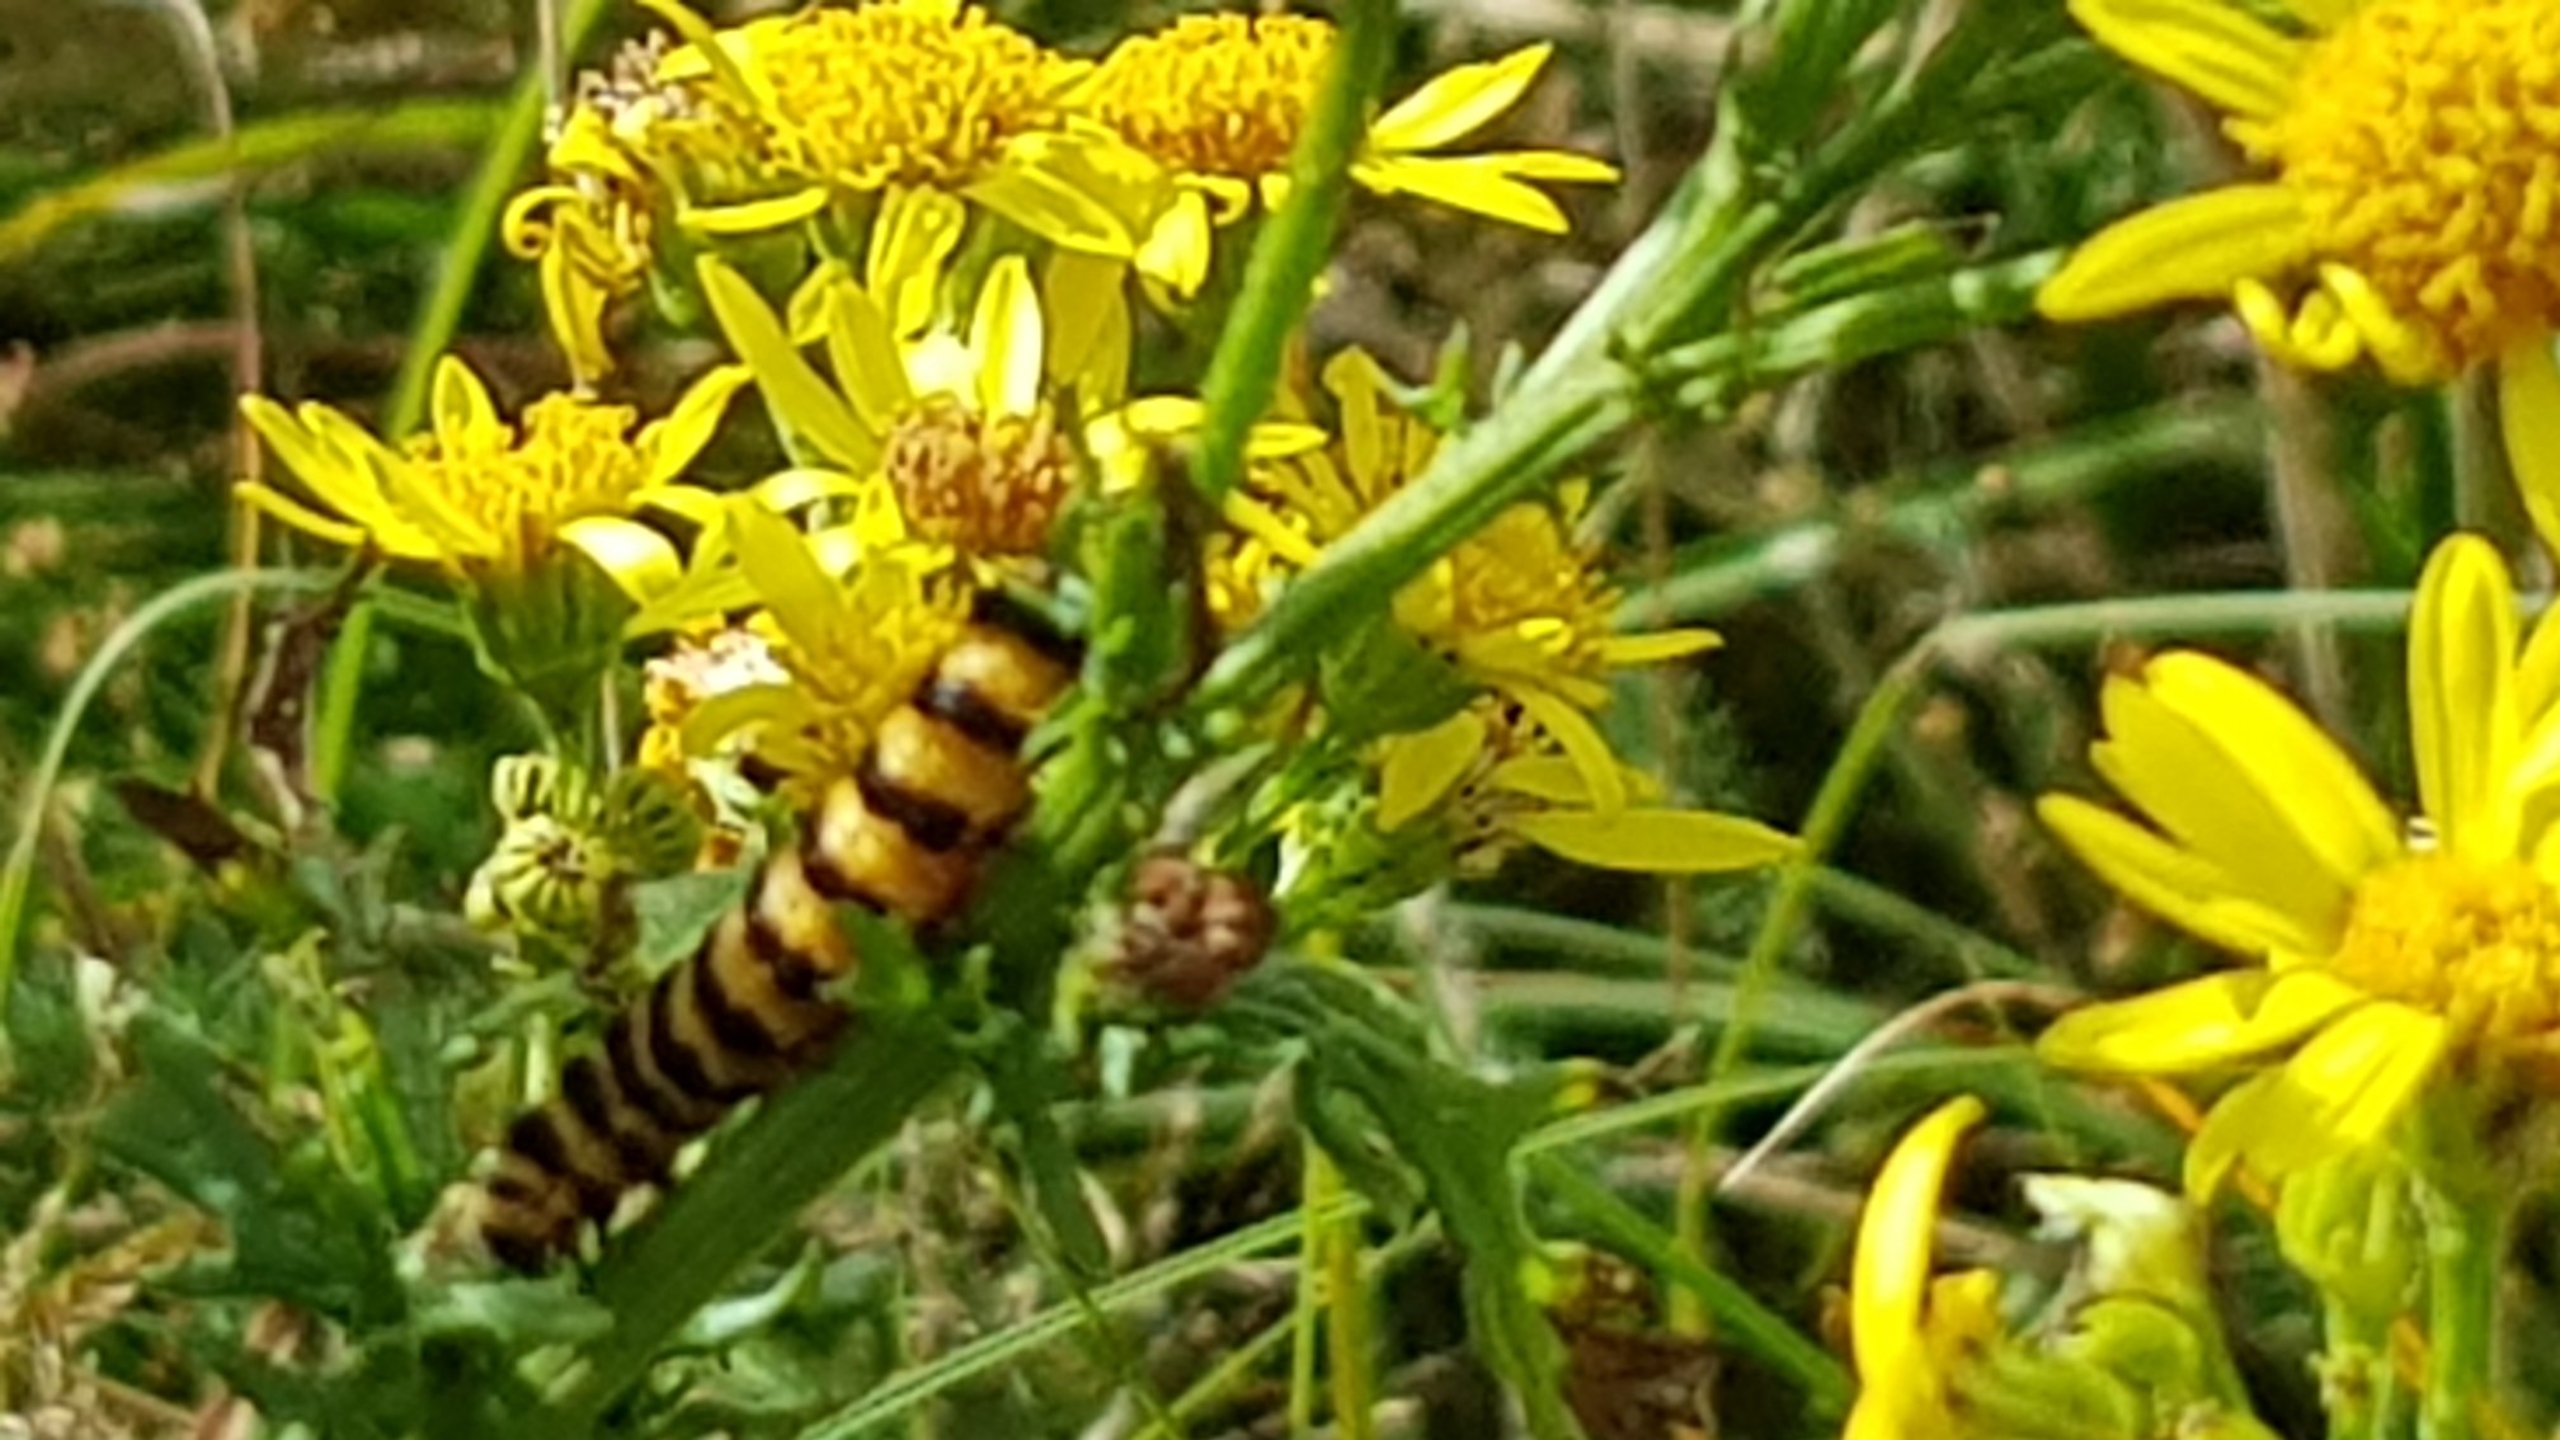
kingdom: Animalia
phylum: Arthropoda
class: Insecta
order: Lepidoptera
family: Erebidae
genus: Tyria
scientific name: Tyria jacobaeae
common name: Blodplet
